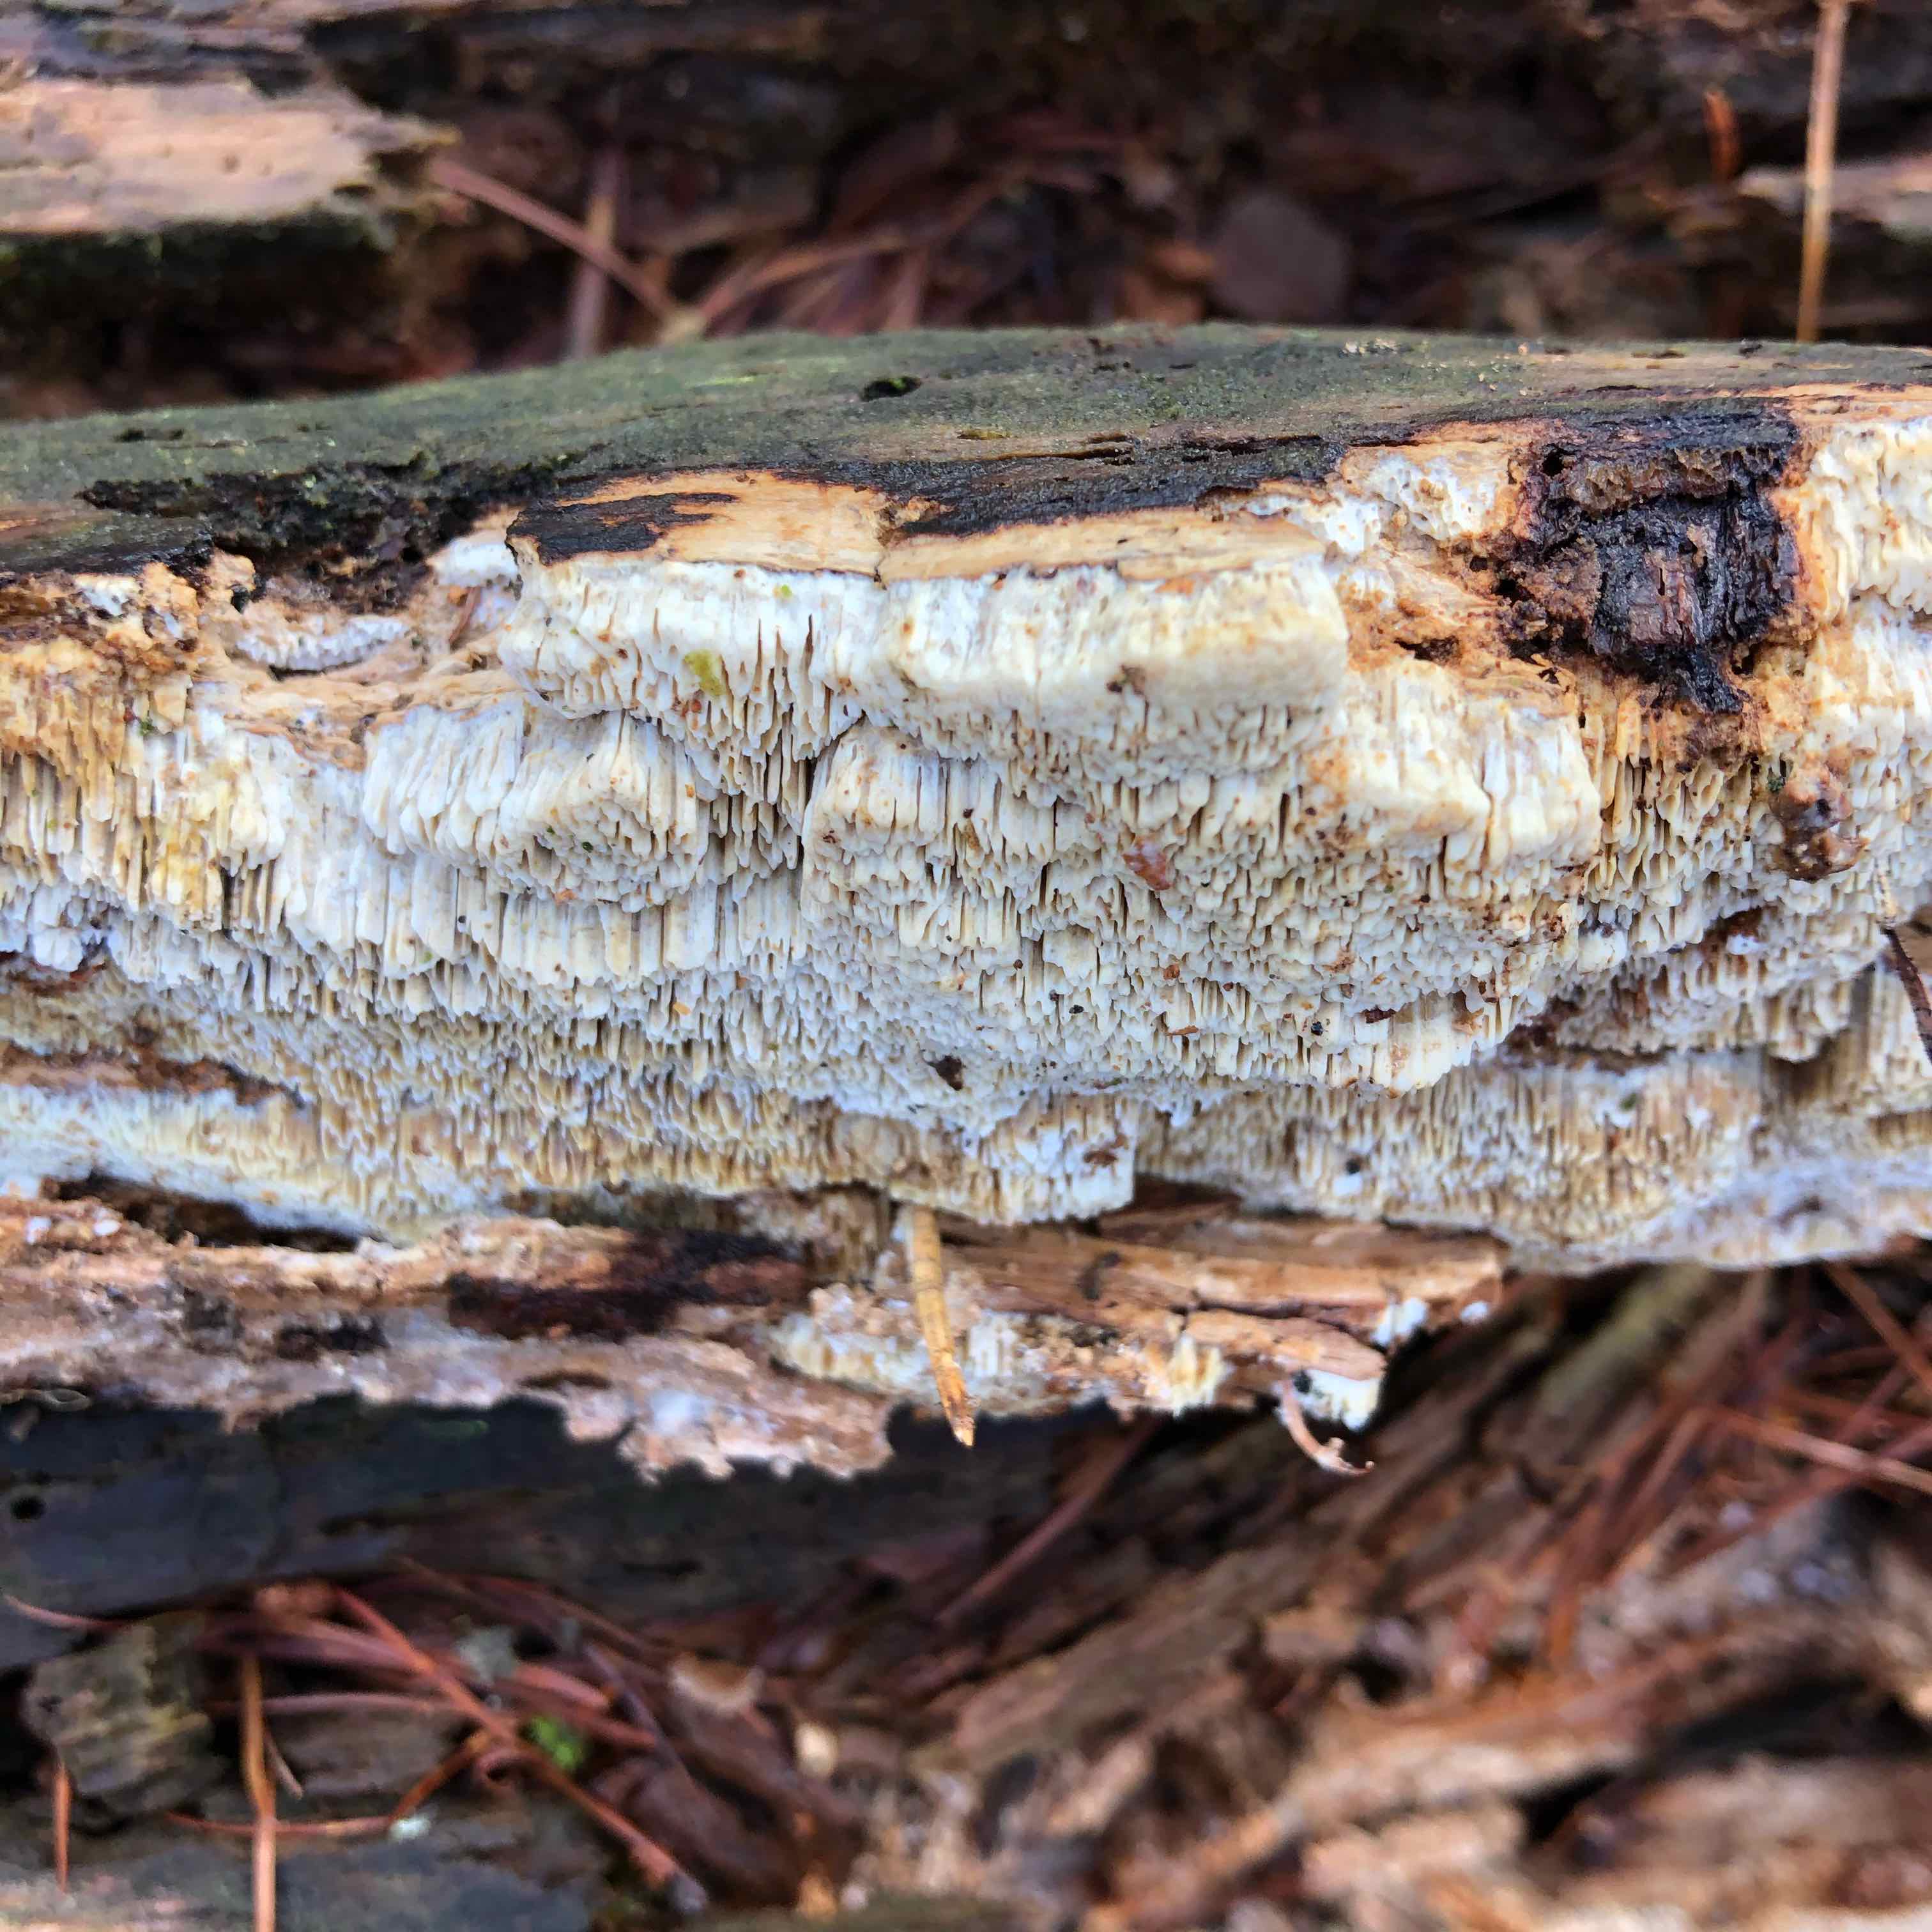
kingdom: Fungi
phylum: Basidiomycota
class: Agaricomycetes
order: Polyporales
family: Fomitopsidaceae
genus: Neoantrodia
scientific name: Neoantrodia serialis
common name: række-sejporesvamp
